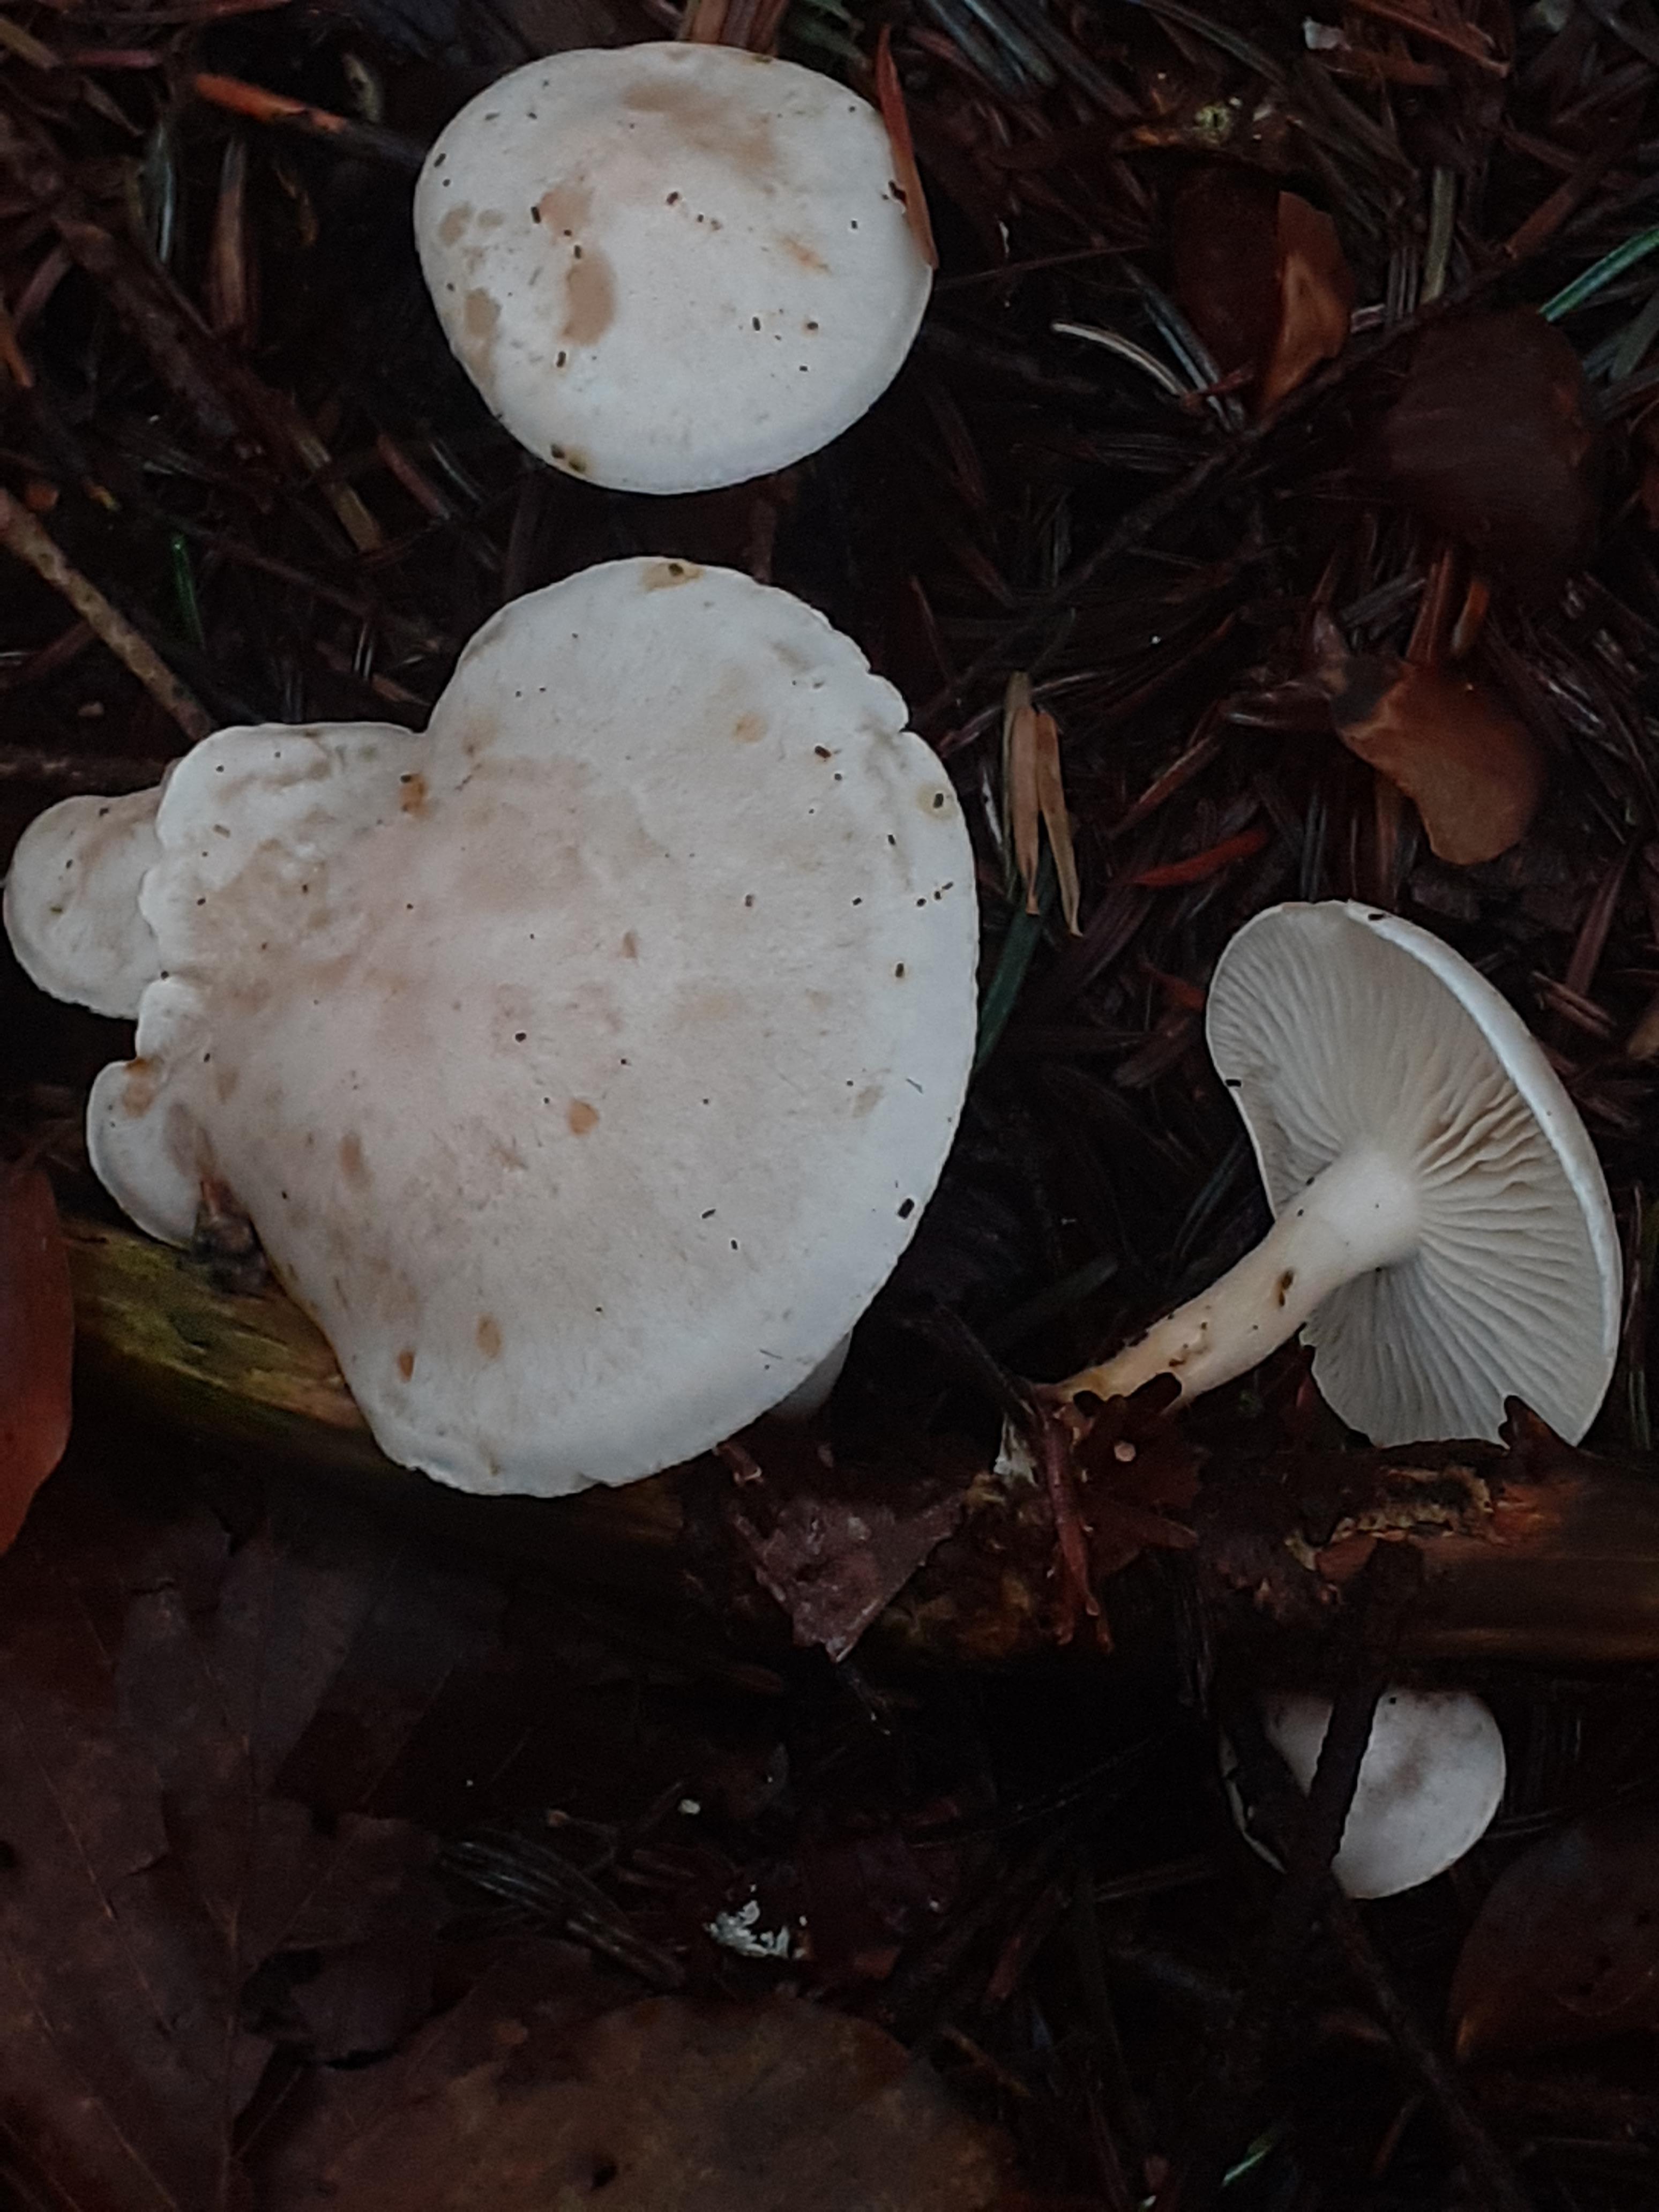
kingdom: Fungi
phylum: Basidiomycota
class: Agaricomycetes
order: Agaricales
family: Tricholomataceae
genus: Clitocybe
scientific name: Clitocybe phyllophila
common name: løv-tragthat
